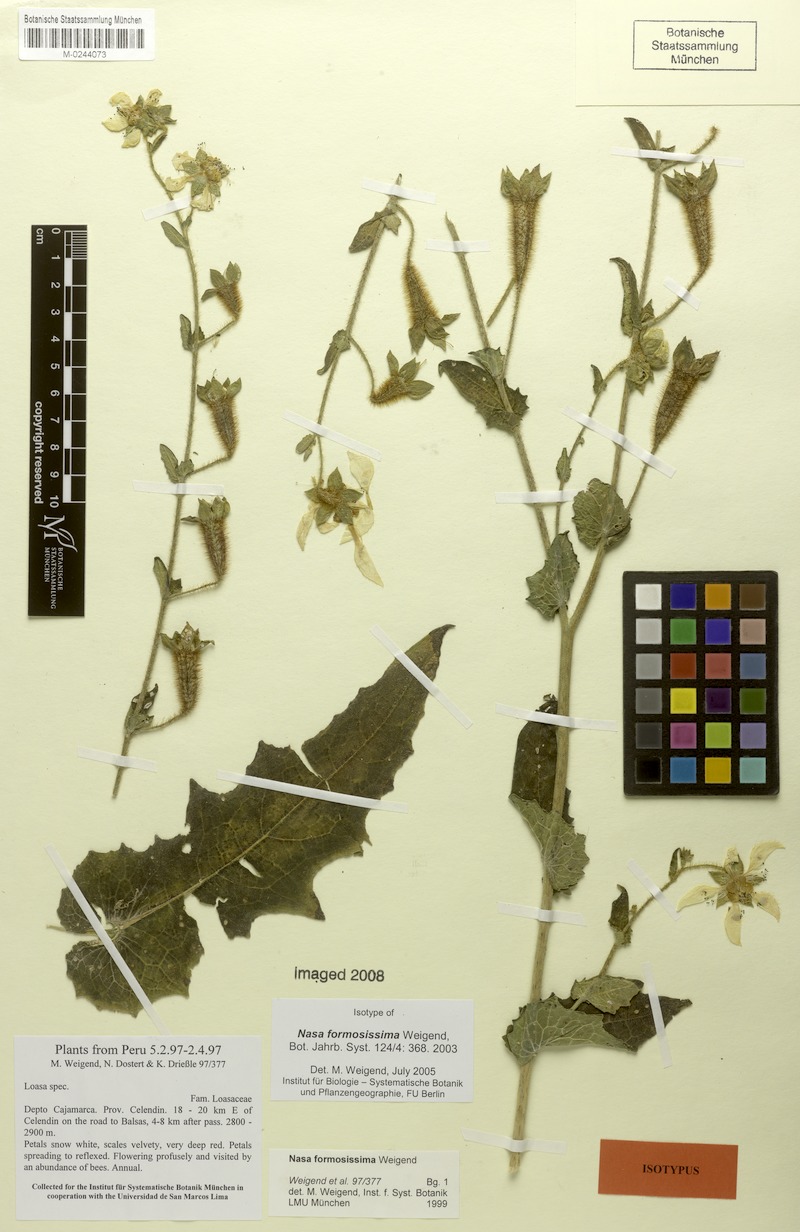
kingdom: Plantae
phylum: Tracheophyta
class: Magnoliopsida
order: Cornales
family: Loasaceae
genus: Nasa
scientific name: Nasa formosissima
